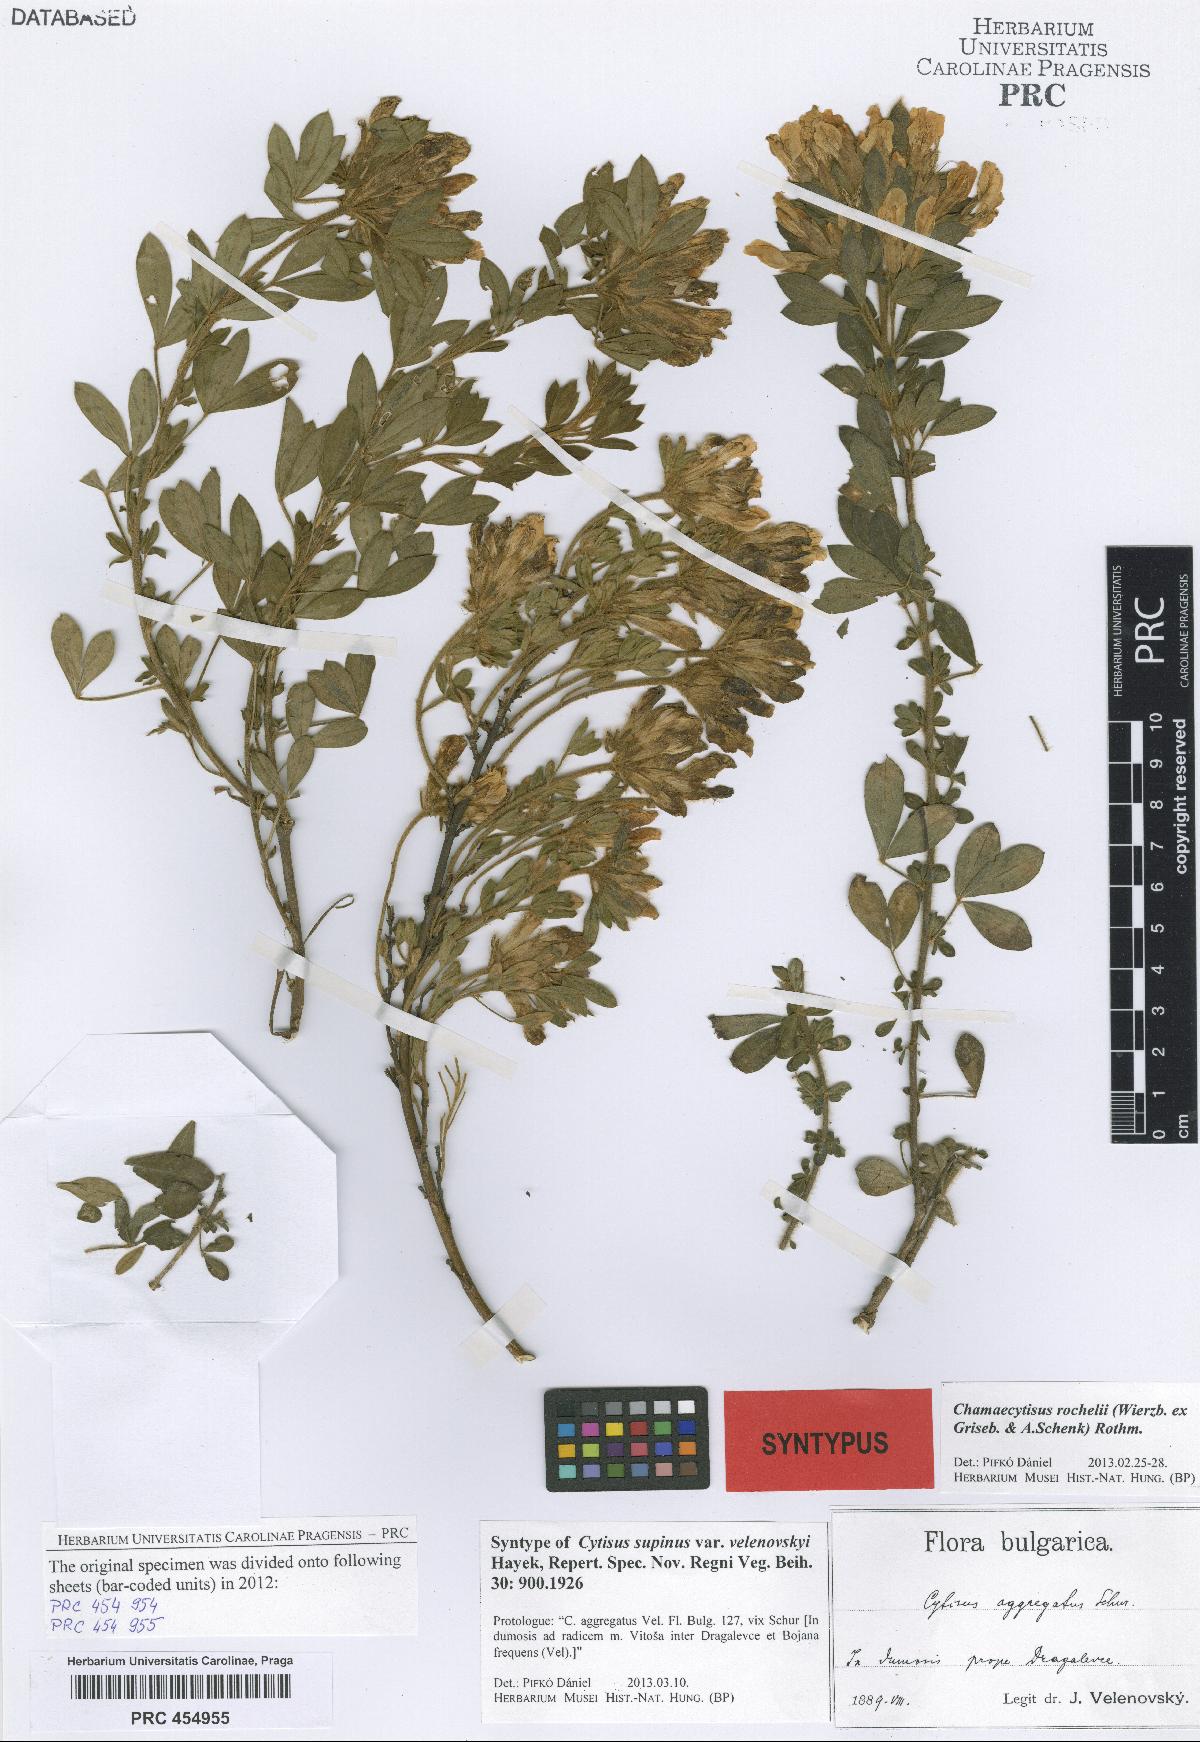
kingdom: Plantae
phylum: Tracheophyta
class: Magnoliopsida
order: Fabales
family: Fabaceae
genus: Chamaecytisus
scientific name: Chamaecytisus rochelii
